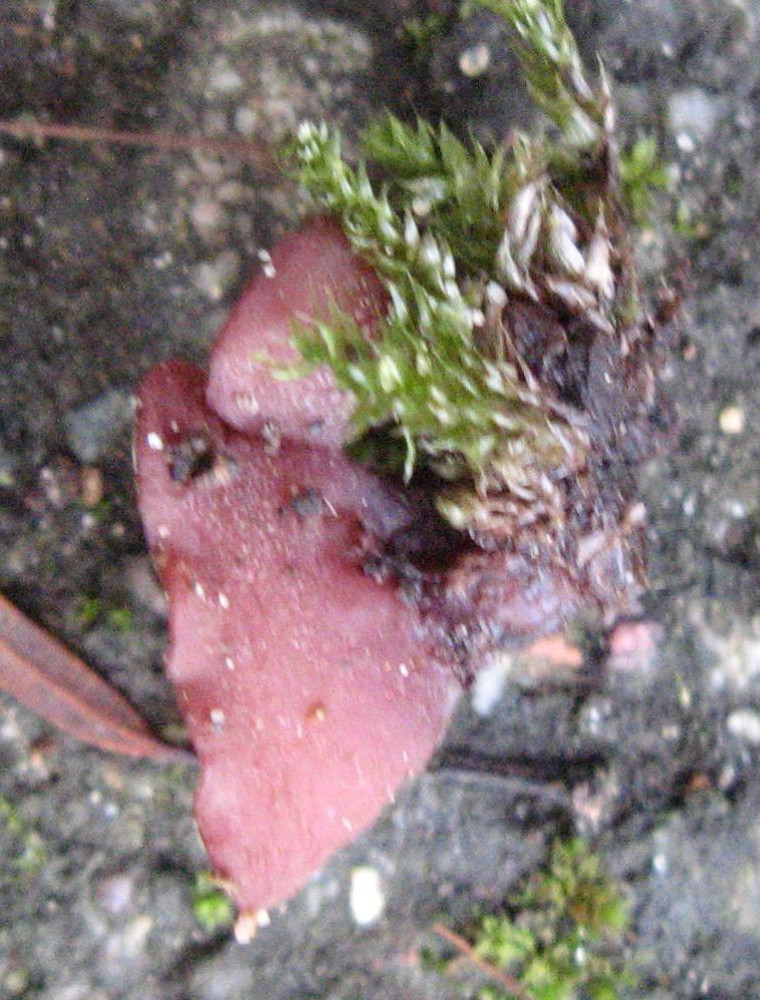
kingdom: Fungi
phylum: Ascomycota
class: Leotiomycetes
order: Helotiales
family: Gelatinodiscaceae
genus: Ascocoryne
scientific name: Ascocoryne cylichnium
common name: stor sejskive
